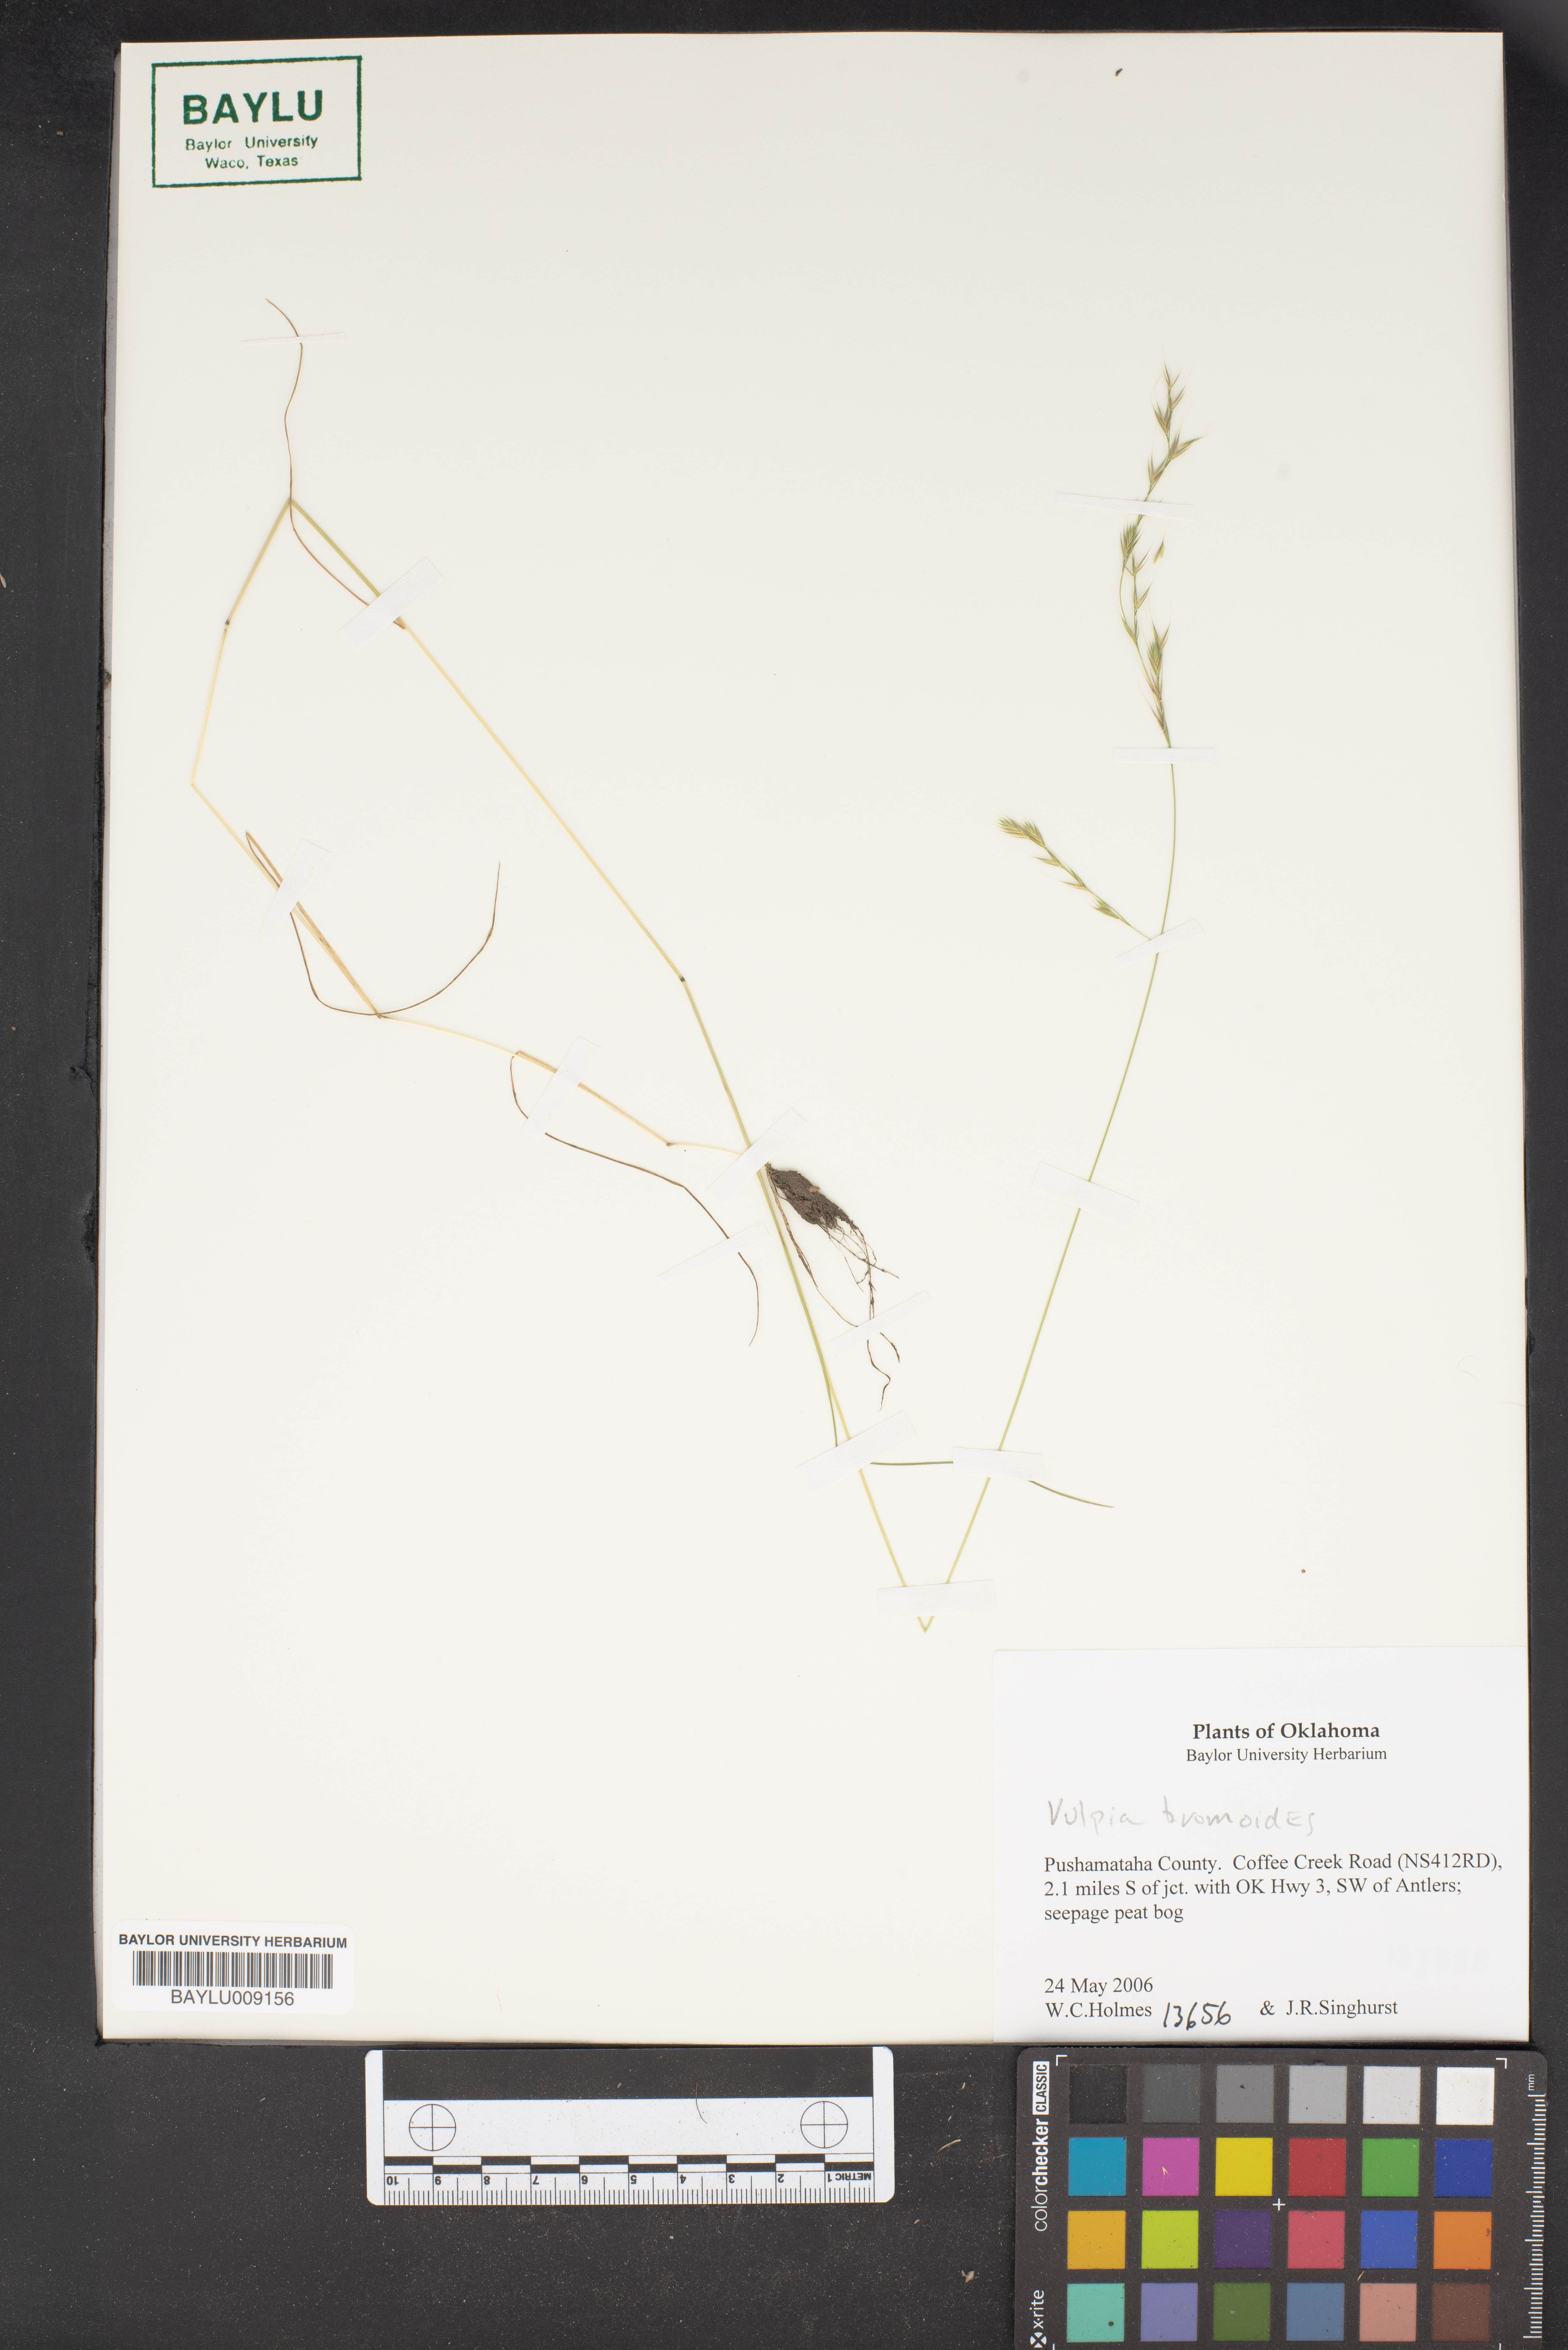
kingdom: Plantae
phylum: Tracheophyta
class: Liliopsida
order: Poales
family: Poaceae
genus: Festuca
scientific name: Festuca bromoides
